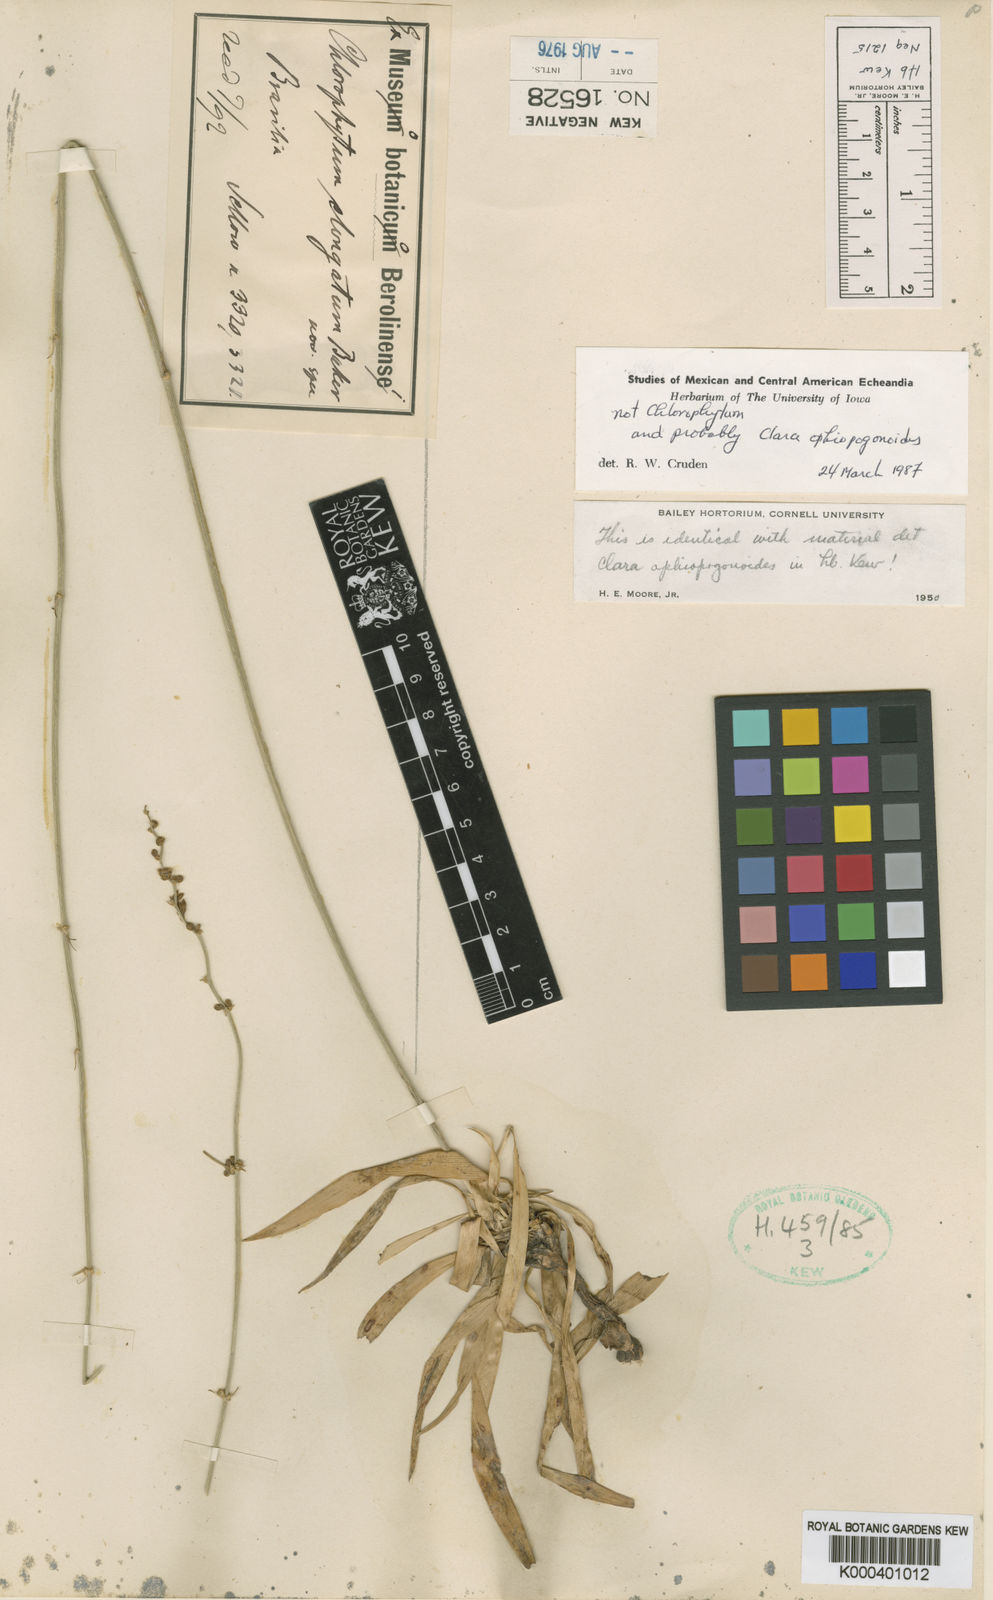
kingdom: Plantae
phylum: Tracheophyta
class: Liliopsida
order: Asparagales
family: Asparagaceae
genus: Clara
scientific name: Clara ophiopogonoides
